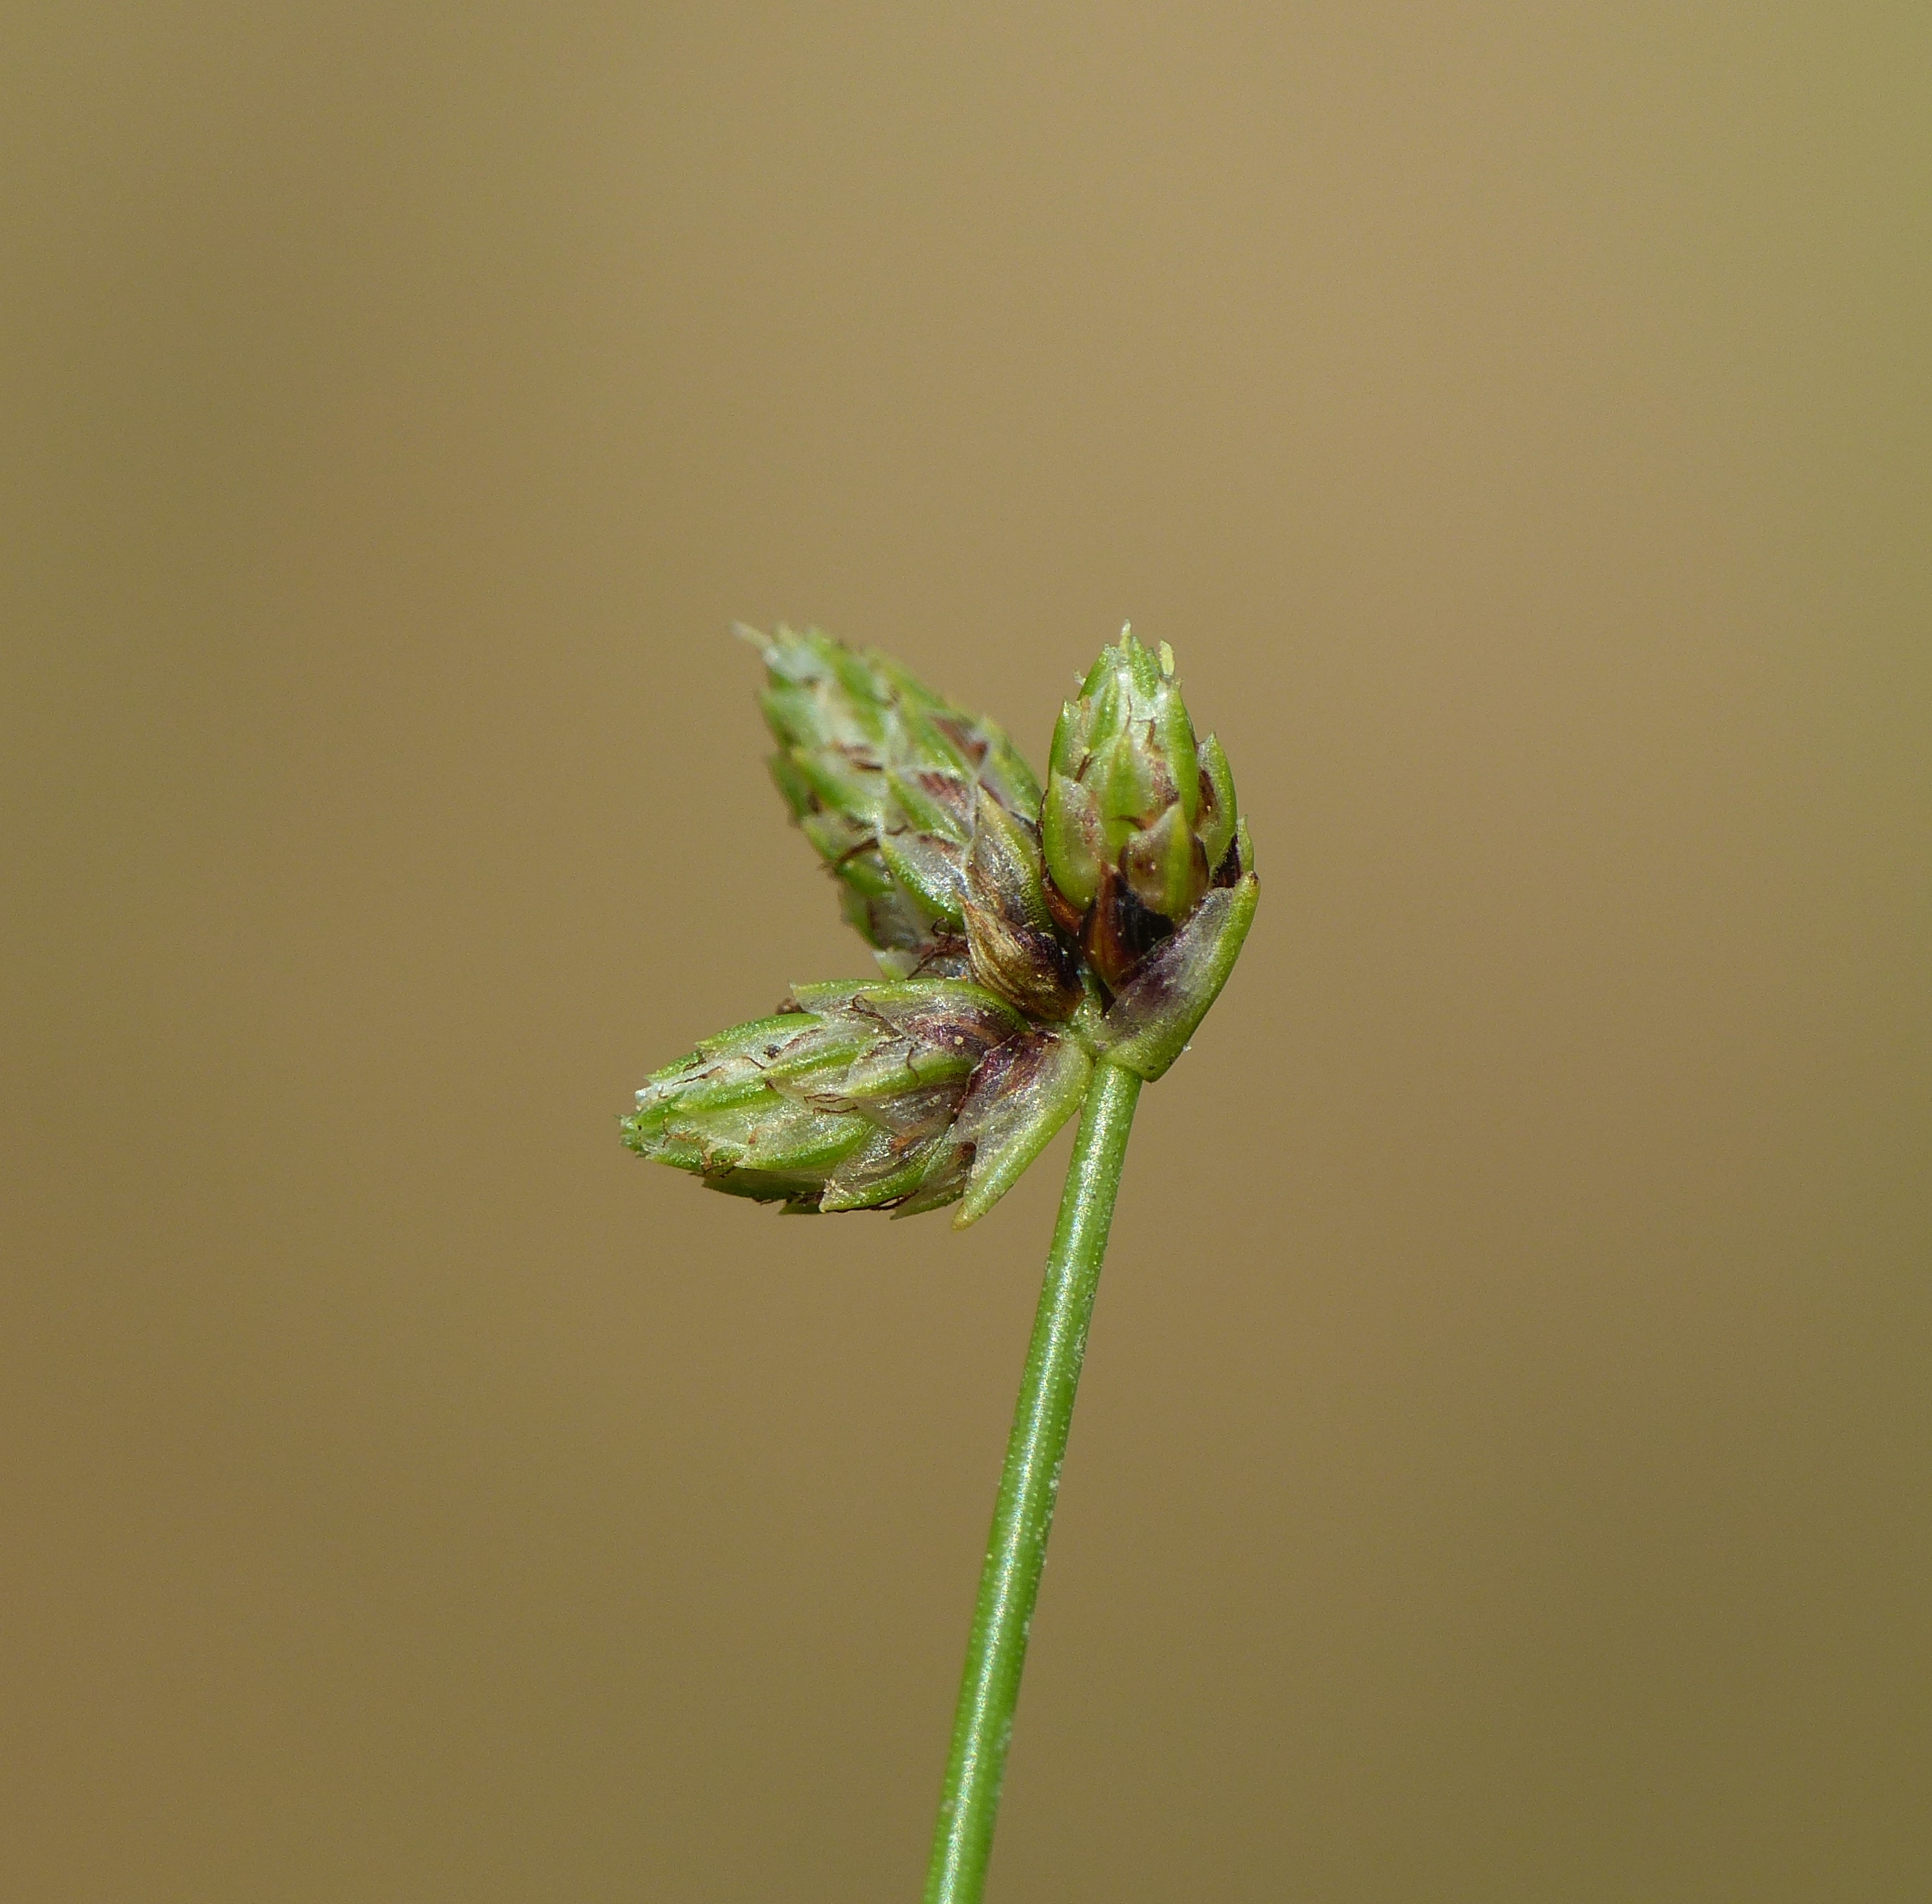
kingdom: Plantae
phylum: Tracheophyta
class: Liliopsida
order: Poales
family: Cyperaceae
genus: Isolepis
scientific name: Isolepis setacea
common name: Børste-kogleaks
